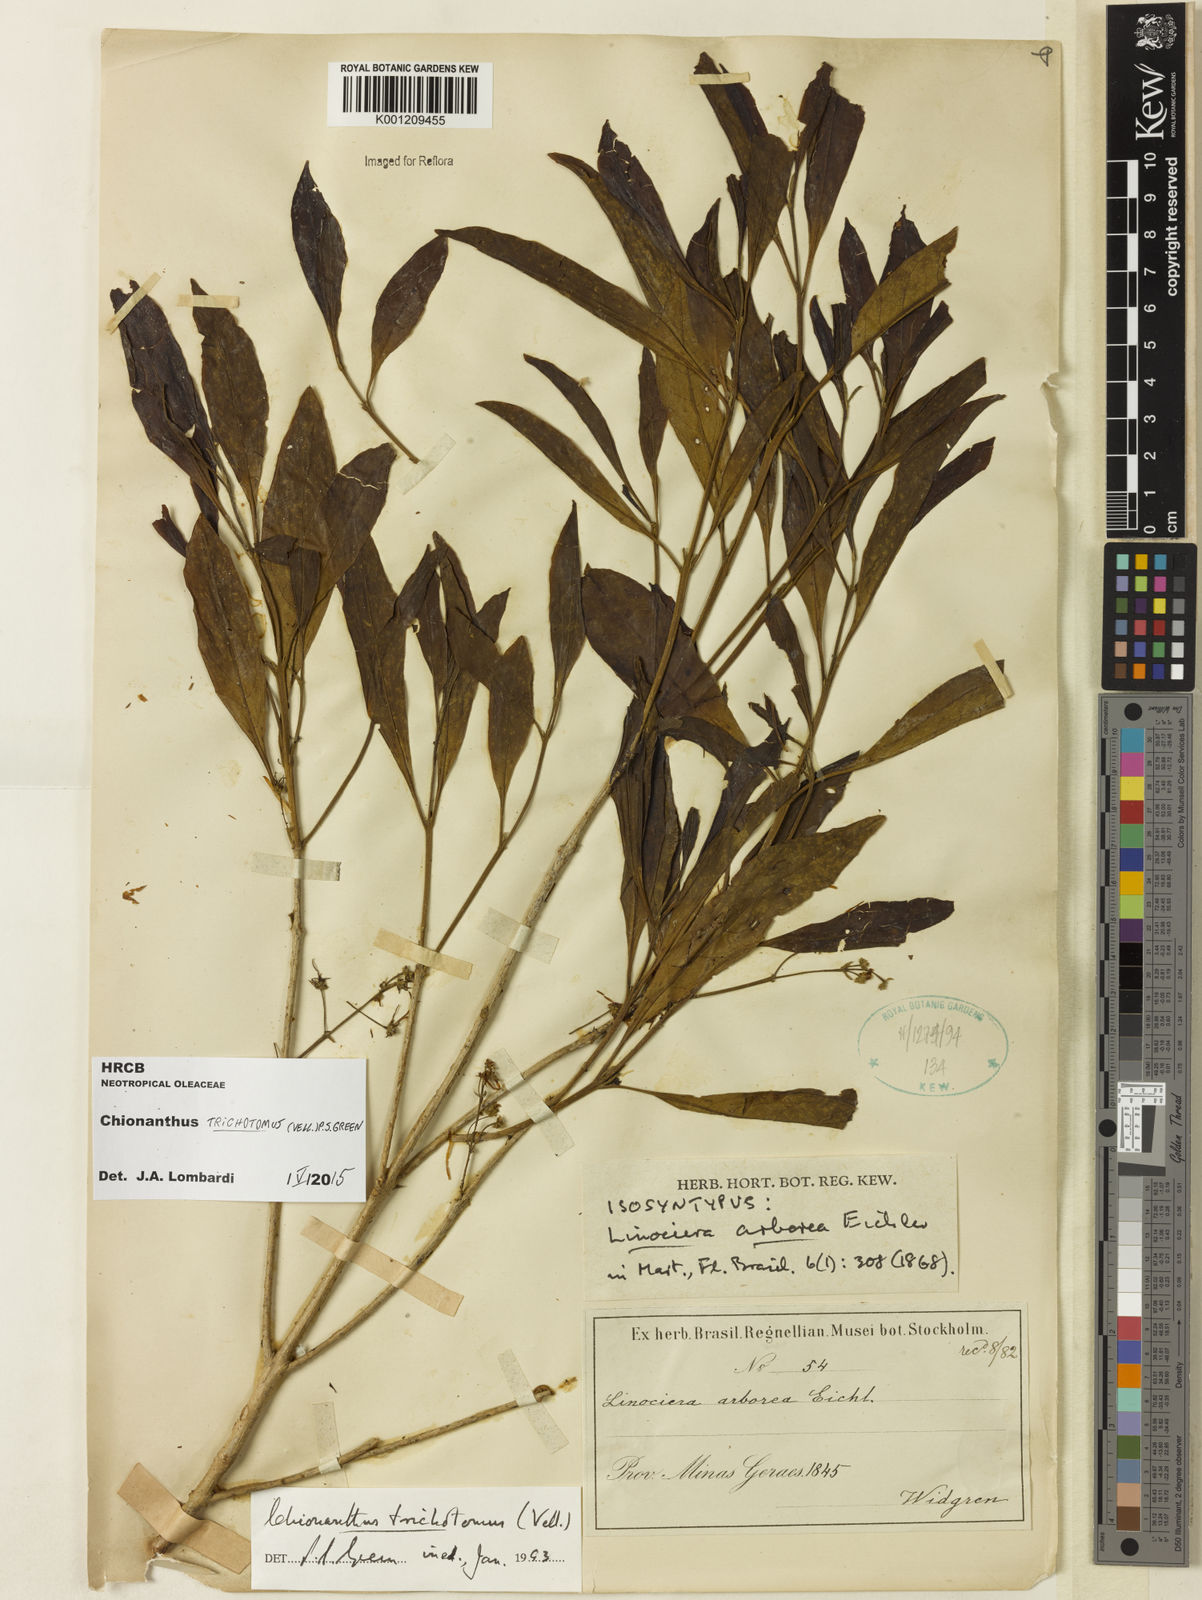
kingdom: Plantae
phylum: Tracheophyta
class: Magnoliopsida
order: Lamiales
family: Oleaceae
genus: Chionanthus
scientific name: Chionanthus trichotomus
